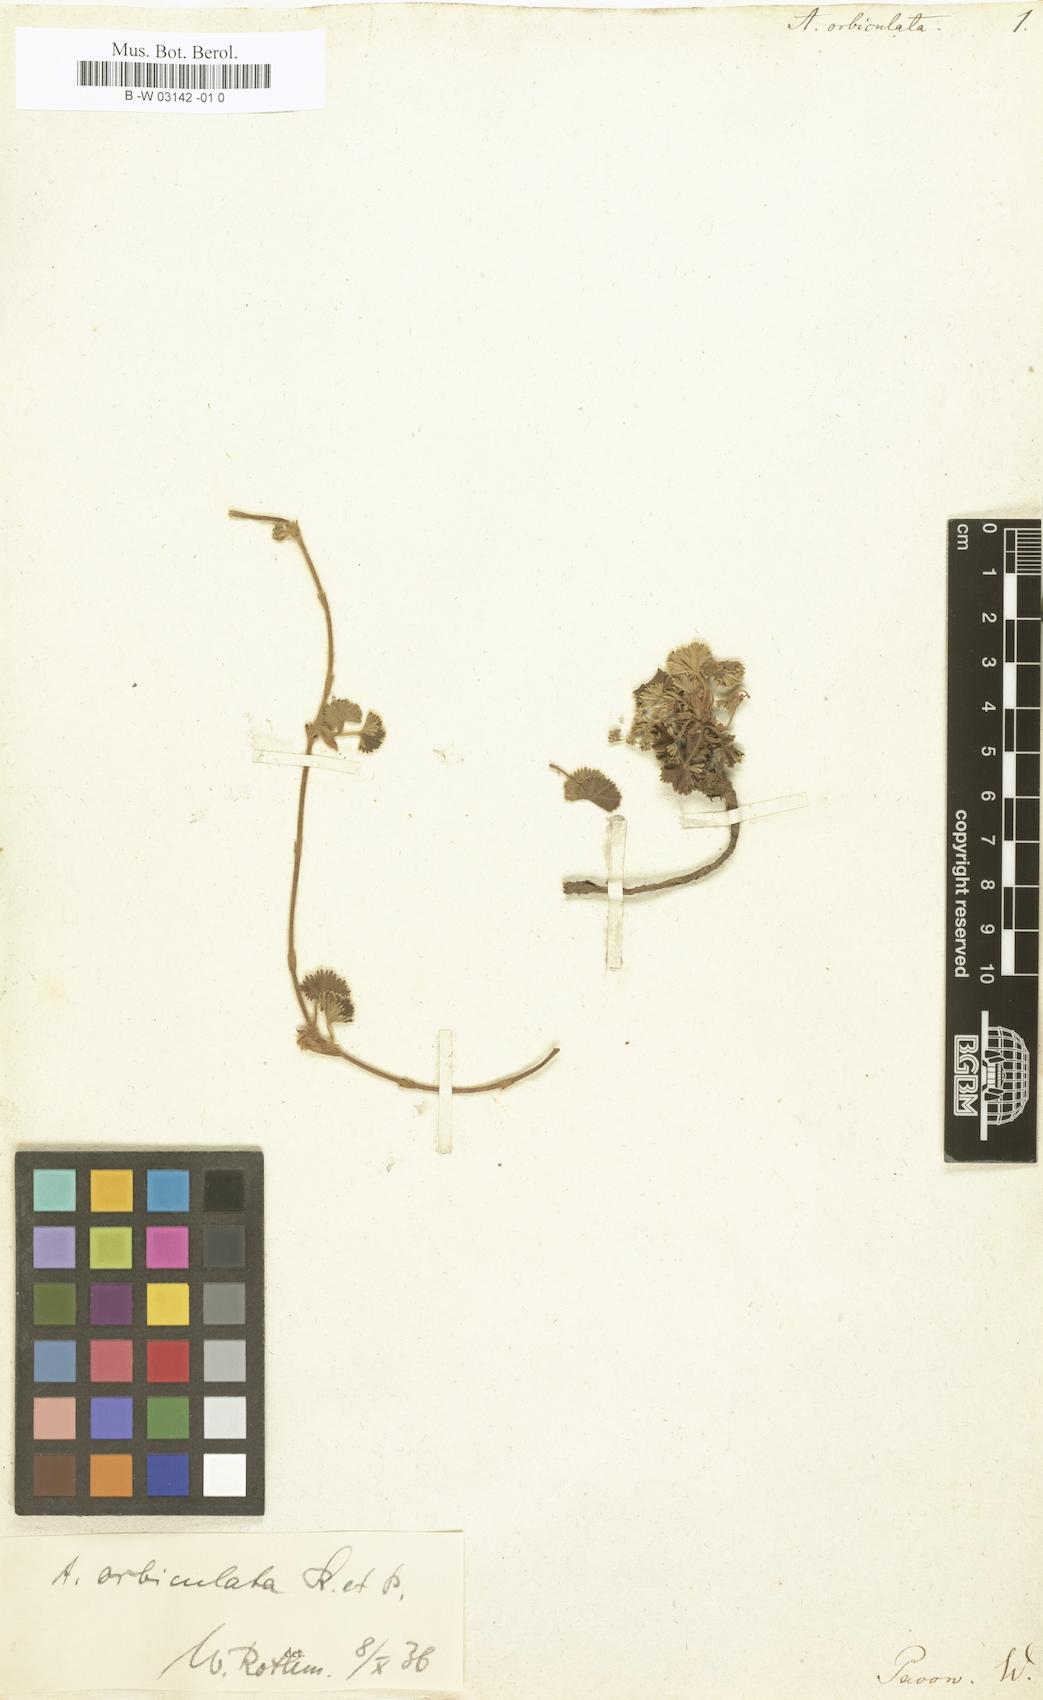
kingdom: Plantae
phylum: Tracheophyta
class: Magnoliopsida
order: Rosales
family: Rosaceae
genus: Lachemilla
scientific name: Lachemilla orbiculata
